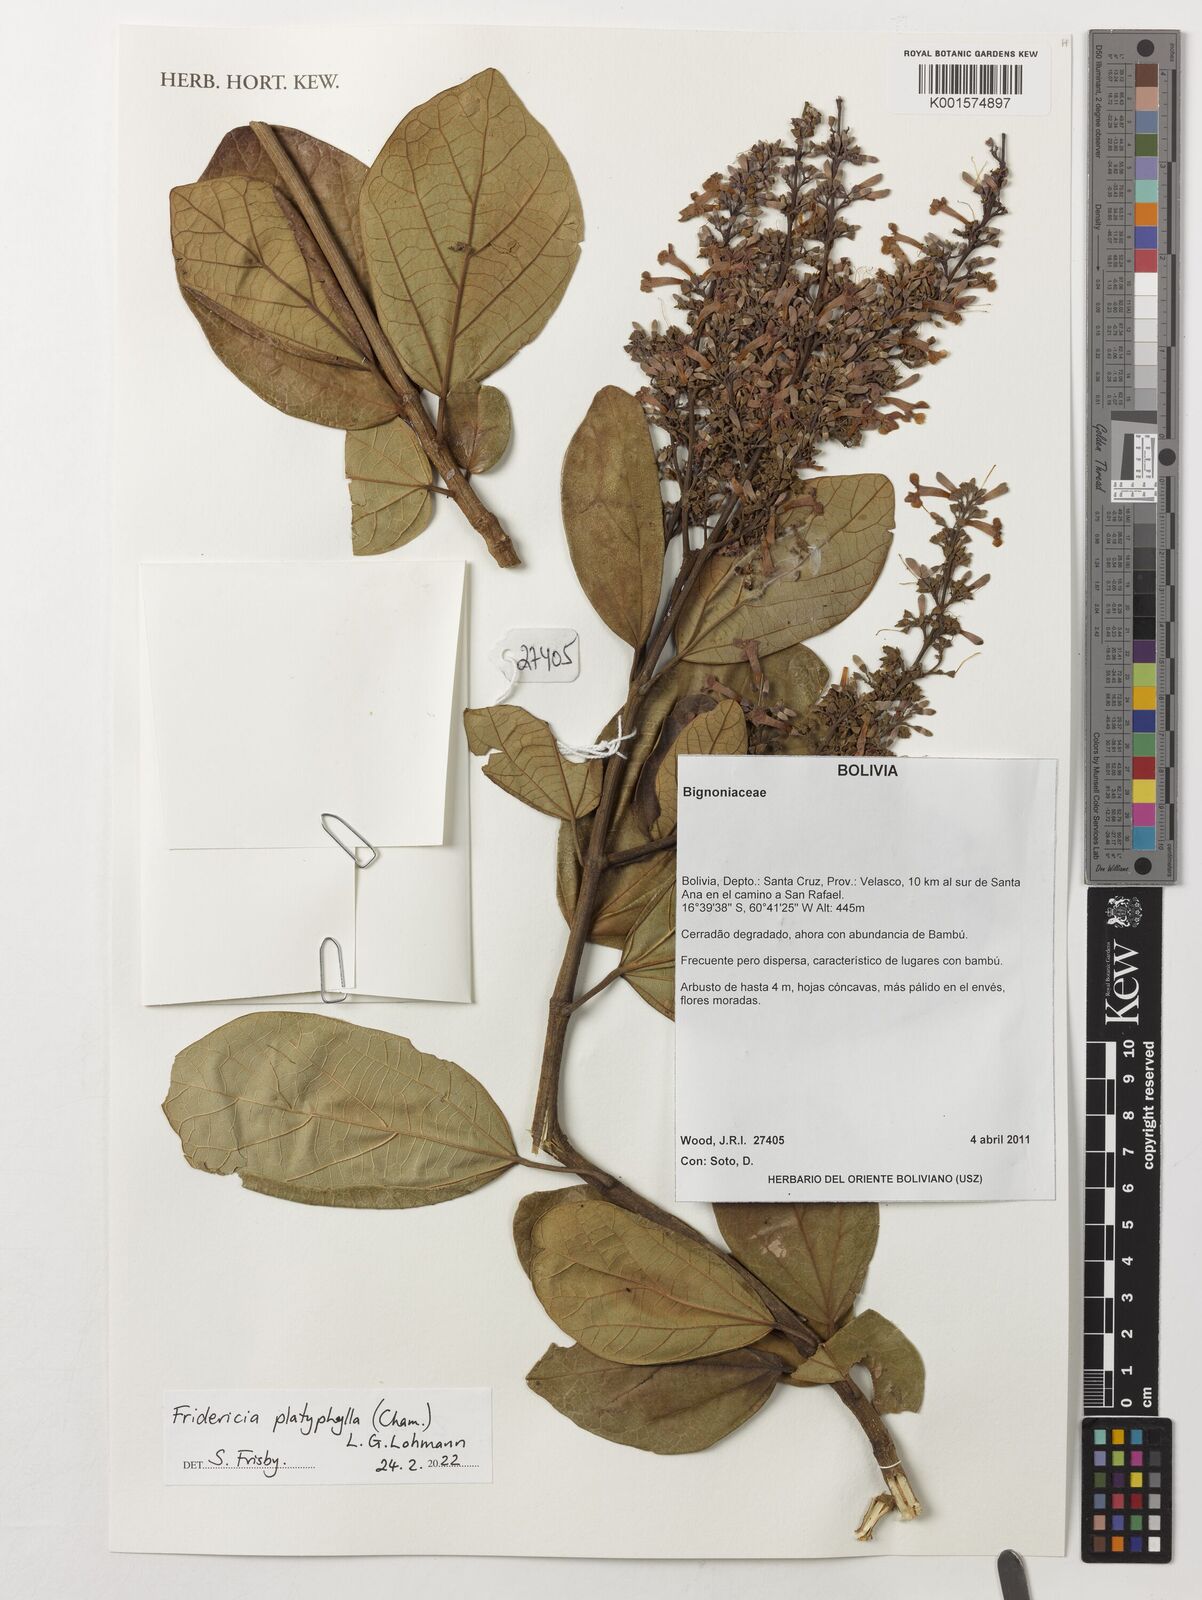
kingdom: Plantae
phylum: Tracheophyta
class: Magnoliopsida
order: Lamiales
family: Bignoniaceae
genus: Fridericia
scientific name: Fridericia platyphylla
